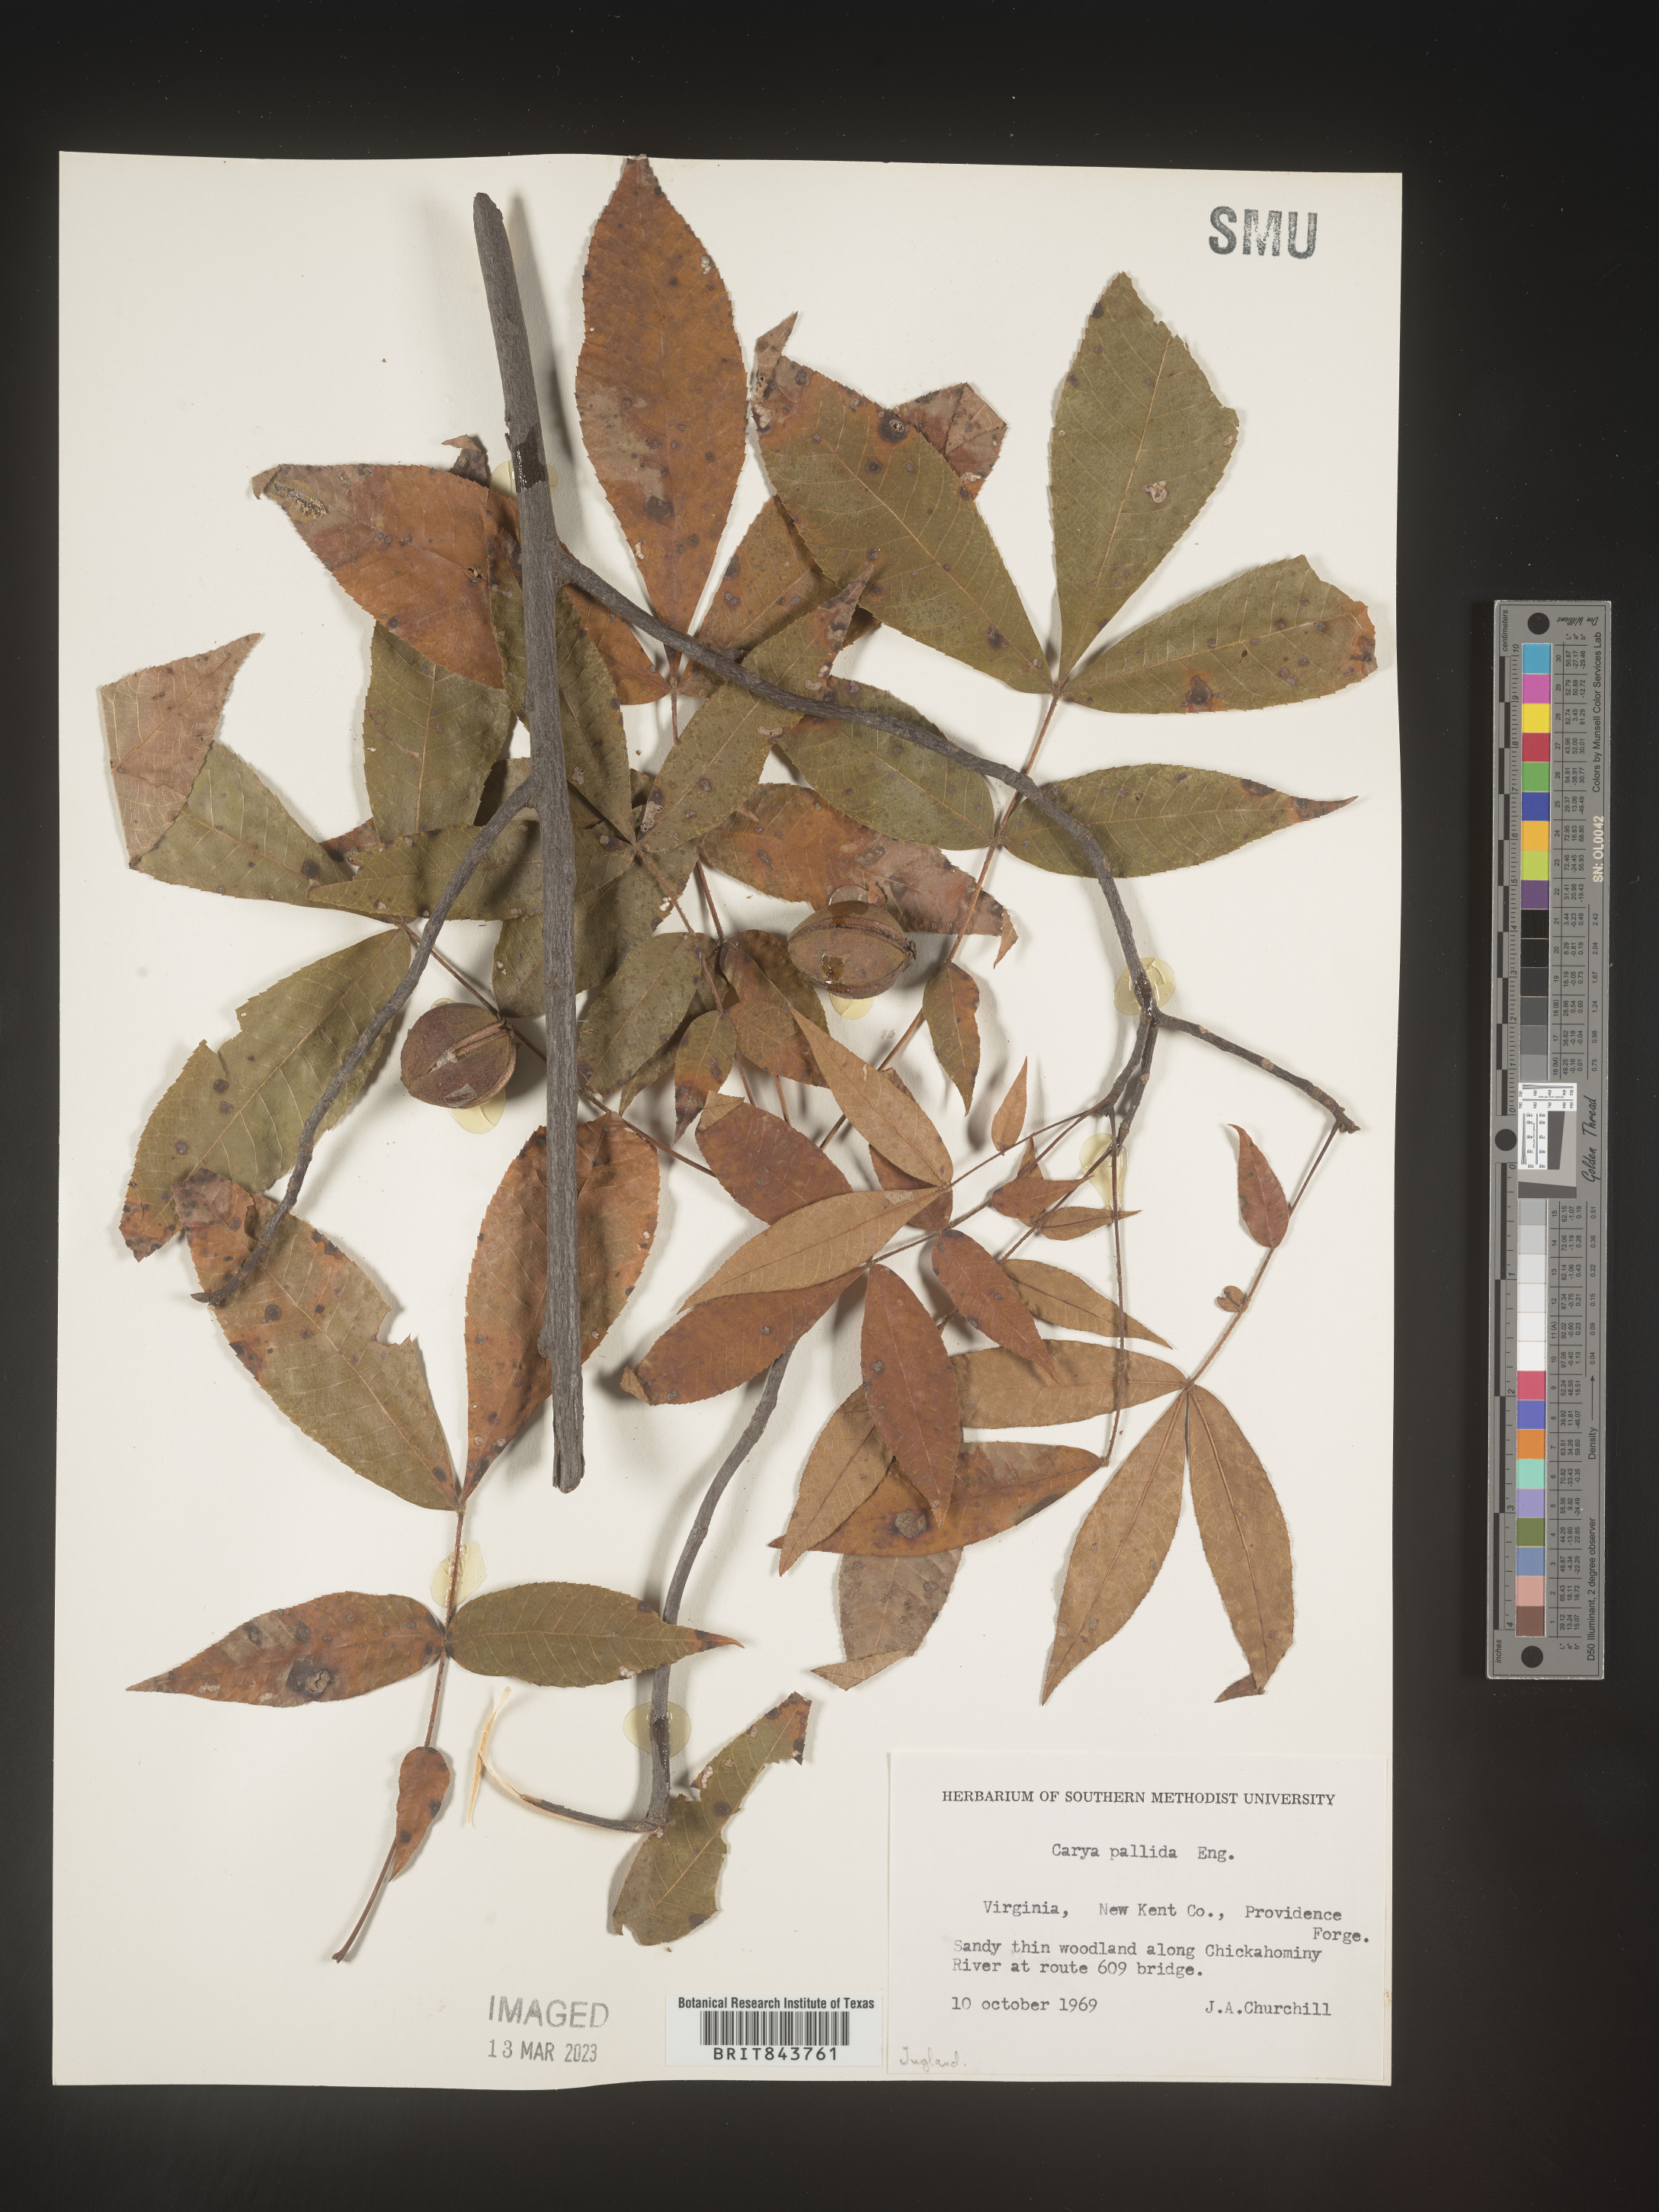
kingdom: Plantae
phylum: Tracheophyta
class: Magnoliopsida
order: Fagales
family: Juglandaceae
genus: Carya
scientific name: Carya pallida
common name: Sand hickory
